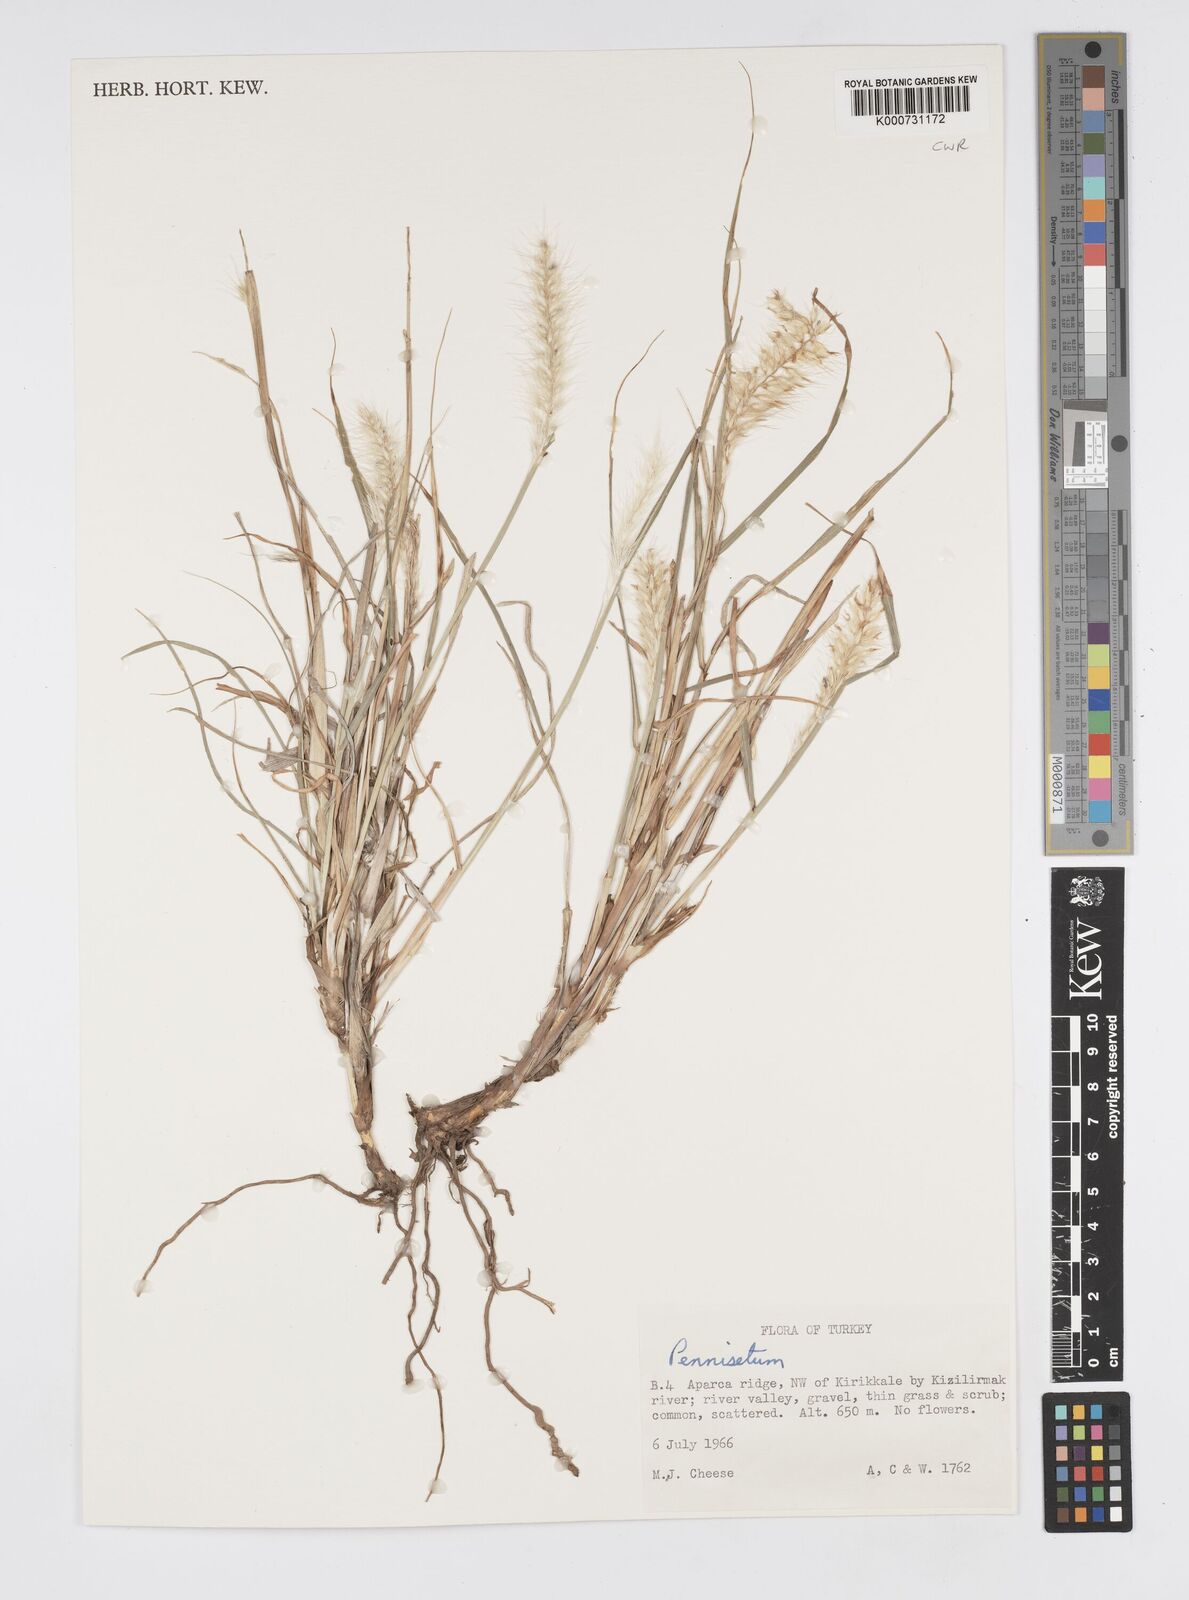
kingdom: Plantae
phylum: Tracheophyta
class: Liliopsida
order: Poales
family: Poaceae
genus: Cenchrus
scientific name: Cenchrus orientalis
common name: Oriental fountain grass
